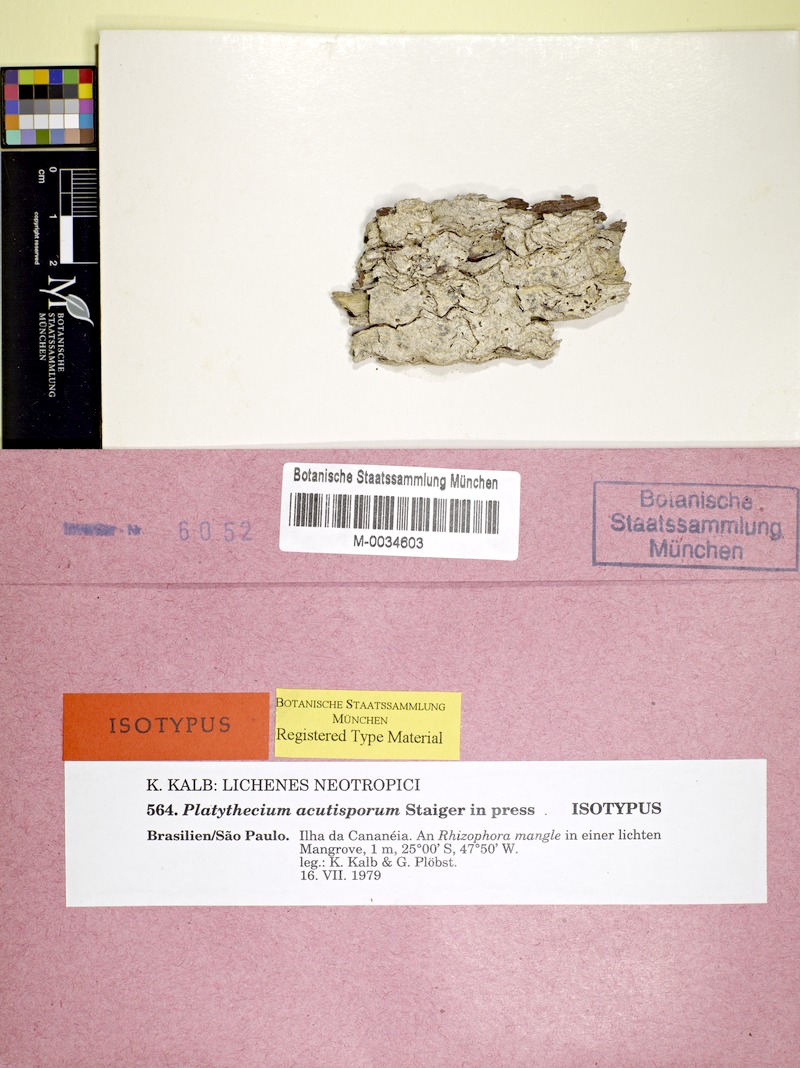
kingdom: Fungi
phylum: Ascomycota
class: Lecanoromycetes
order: Ostropales
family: Graphidaceae
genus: Platythecium
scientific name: Platythecium acutisporum
